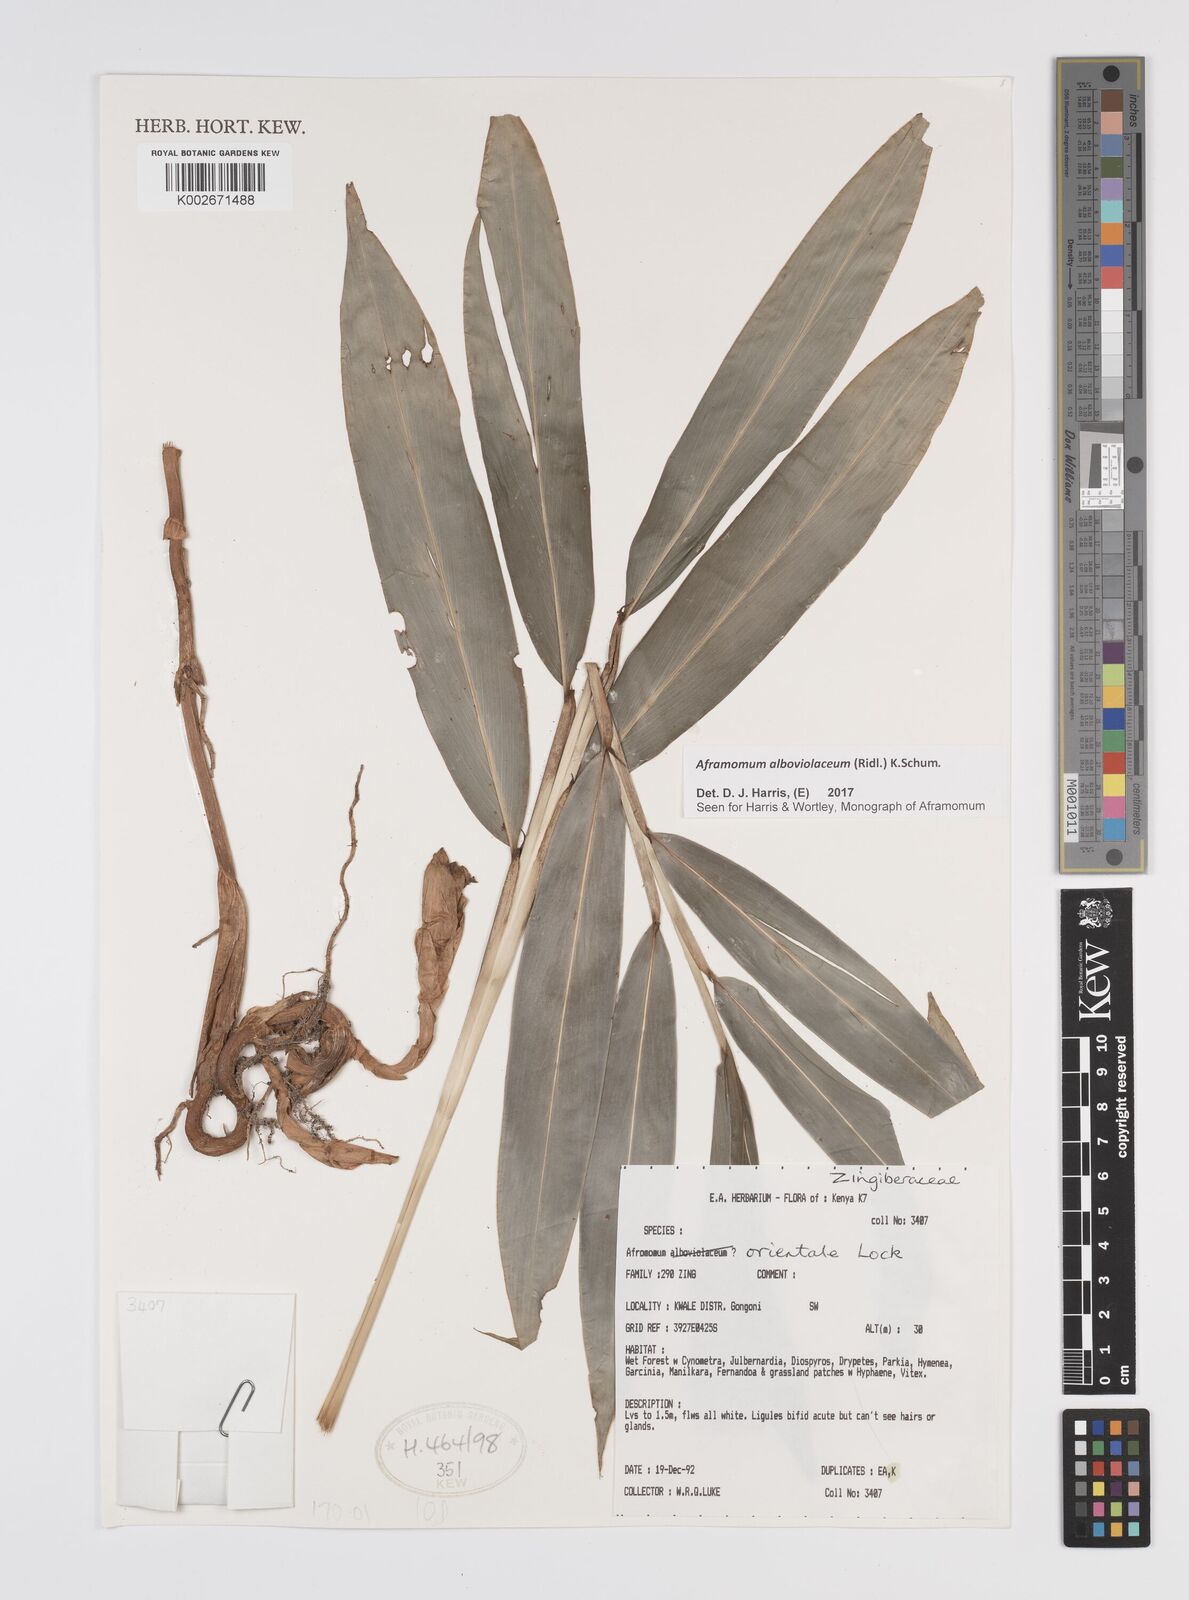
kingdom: Plantae
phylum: Tracheophyta
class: Liliopsida
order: Zingiberales
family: Zingiberaceae
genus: Aframomum
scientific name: Aframomum alboviolaceum
